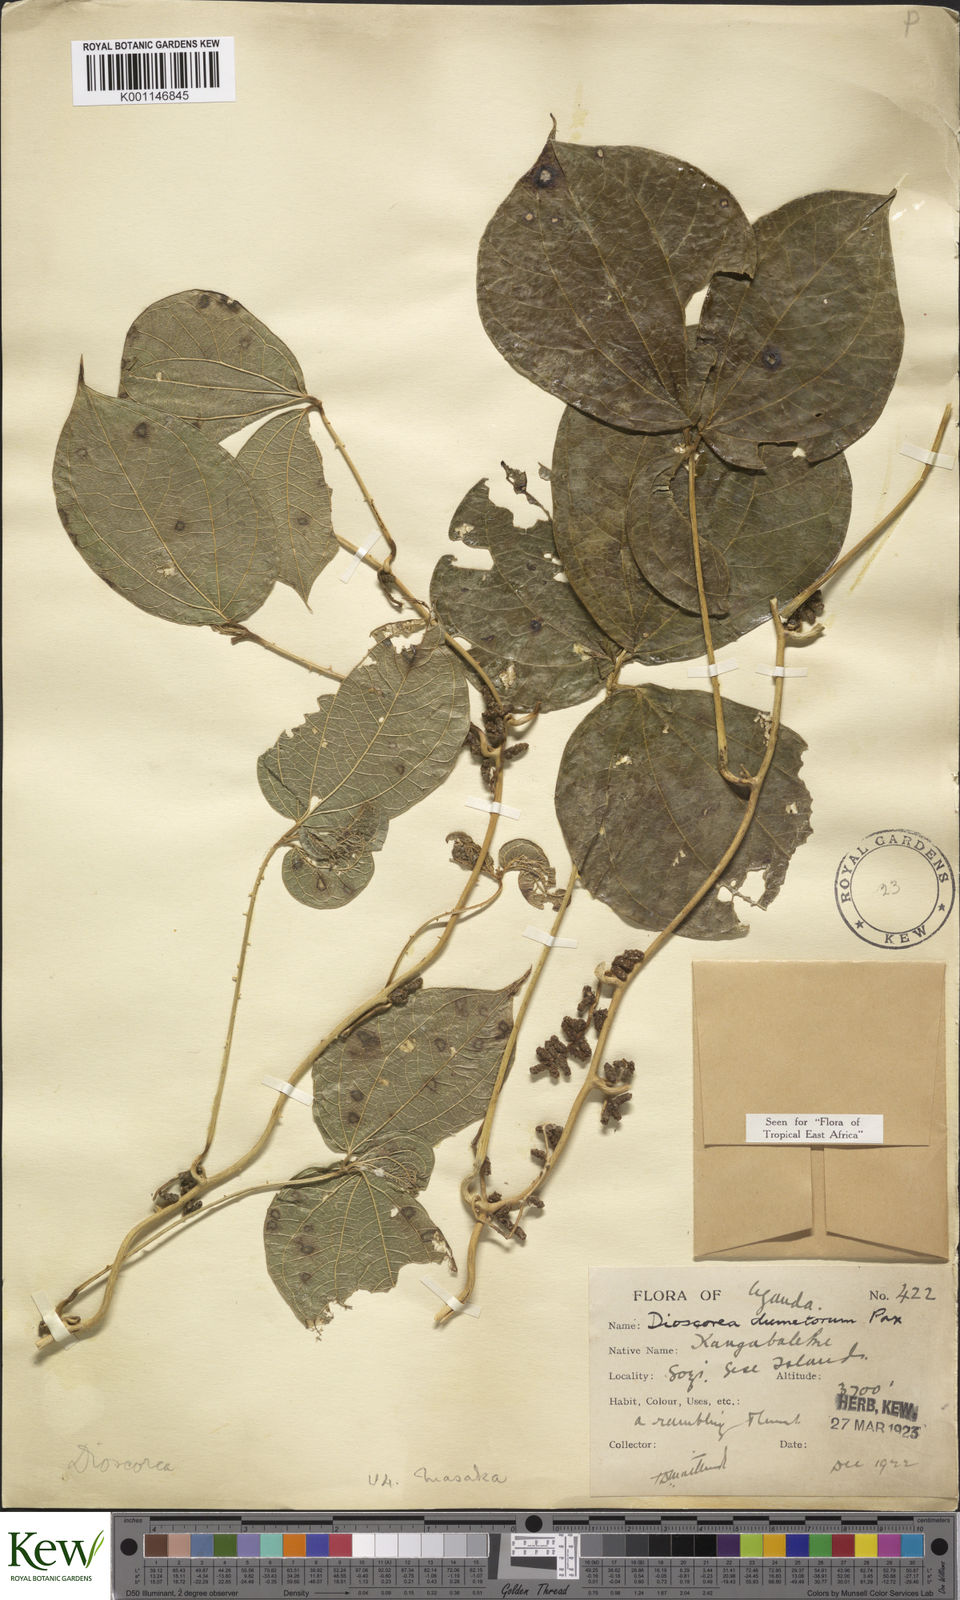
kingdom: Plantae
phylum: Tracheophyta
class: Liliopsida
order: Dioscoreales
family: Dioscoreaceae
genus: Dioscorea
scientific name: Dioscorea dumetorum
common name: African bitter yam
